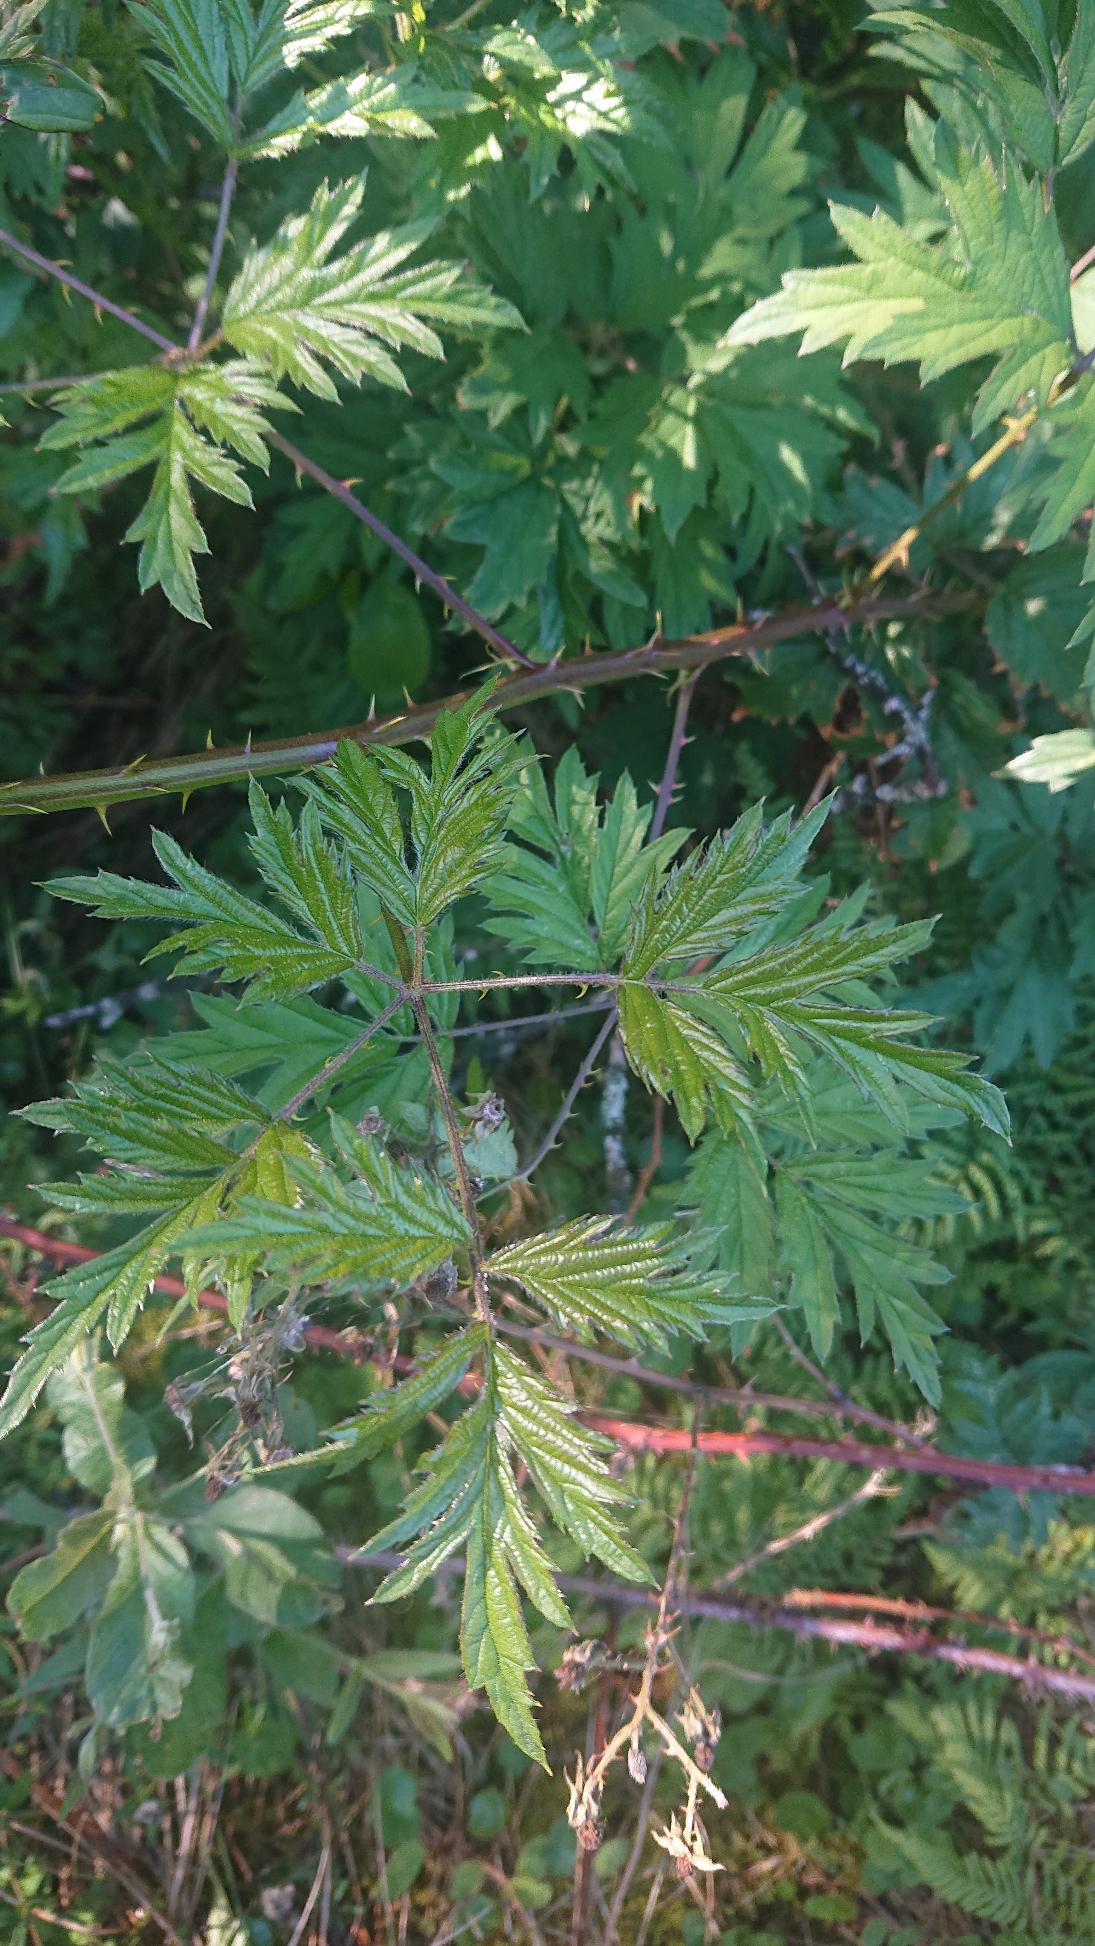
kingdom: Plantae
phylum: Tracheophyta
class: Magnoliopsida
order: Rosales
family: Rosaceae
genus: Rubus
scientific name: Rubus laciniatus
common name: Fliget brombær
